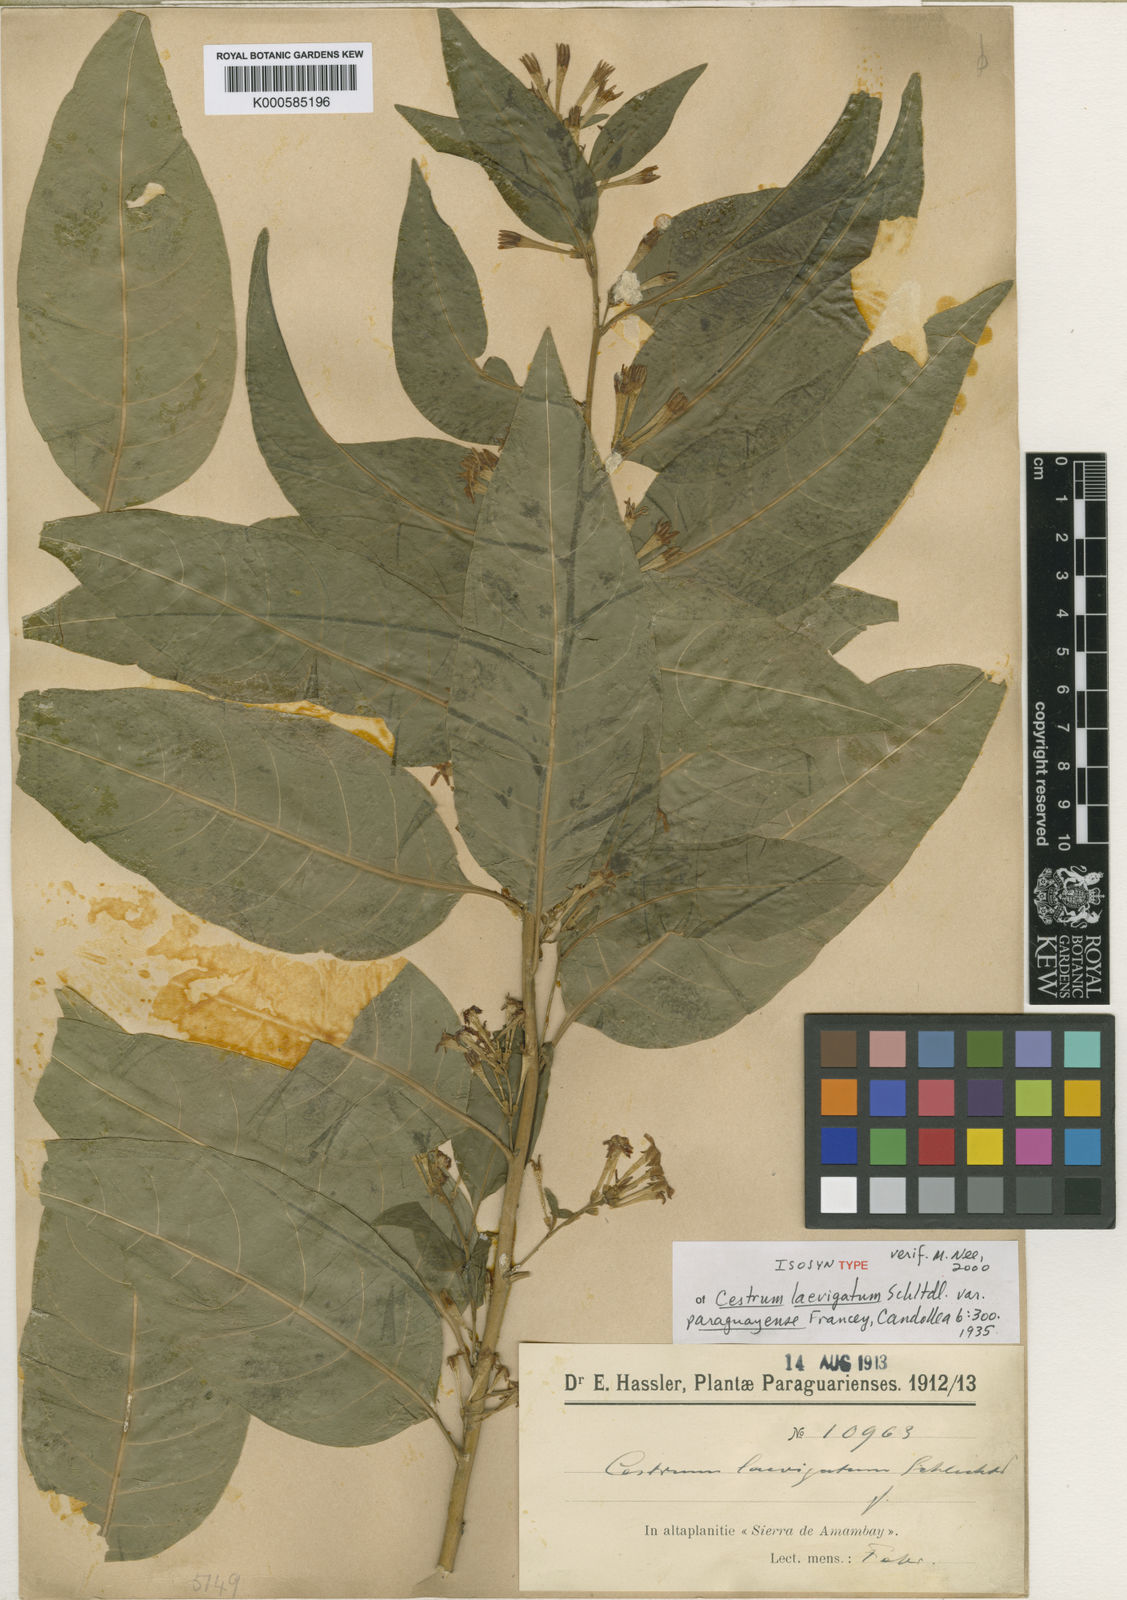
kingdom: Plantae
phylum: Tracheophyta
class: Magnoliopsida
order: Solanales
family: Solanaceae
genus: Cestrum
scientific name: Cestrum laevigatum
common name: Inkberry
